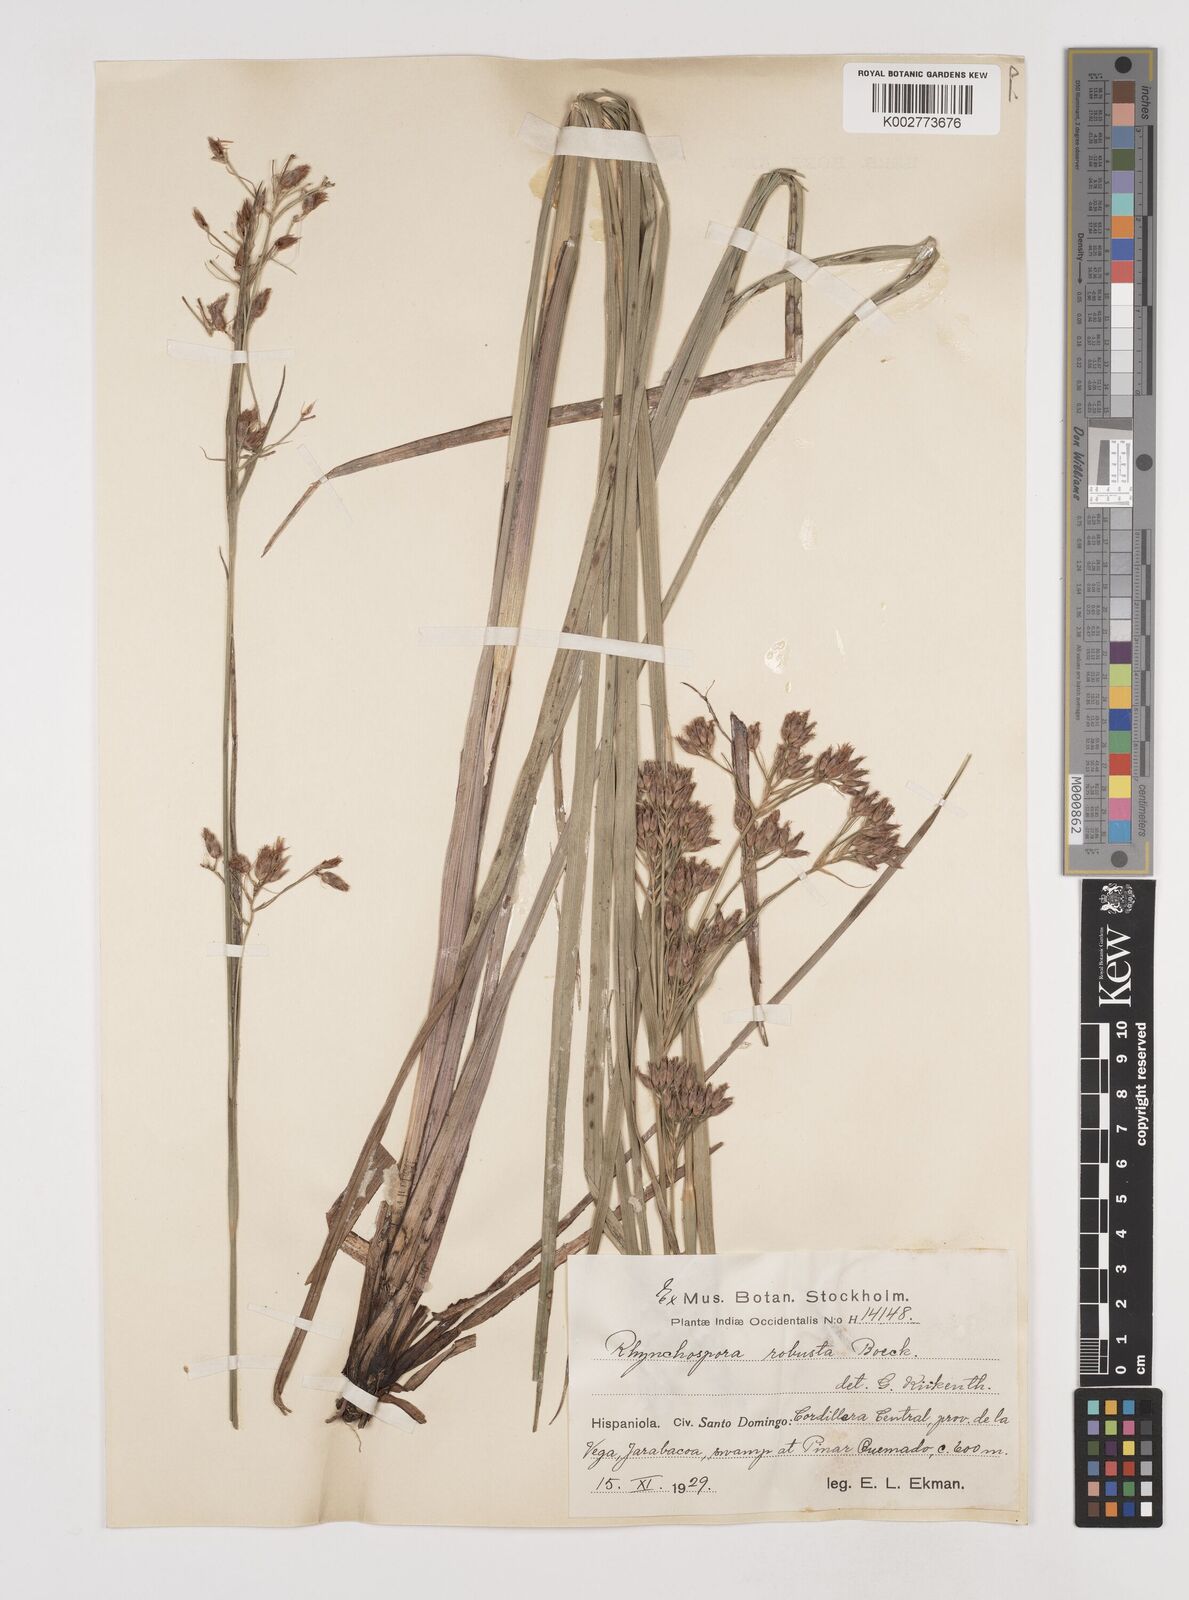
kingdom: Plantae
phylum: Tracheophyta
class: Liliopsida
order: Poales
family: Cyperaceae
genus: Rhynchospora
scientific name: Rhynchospora robusta
